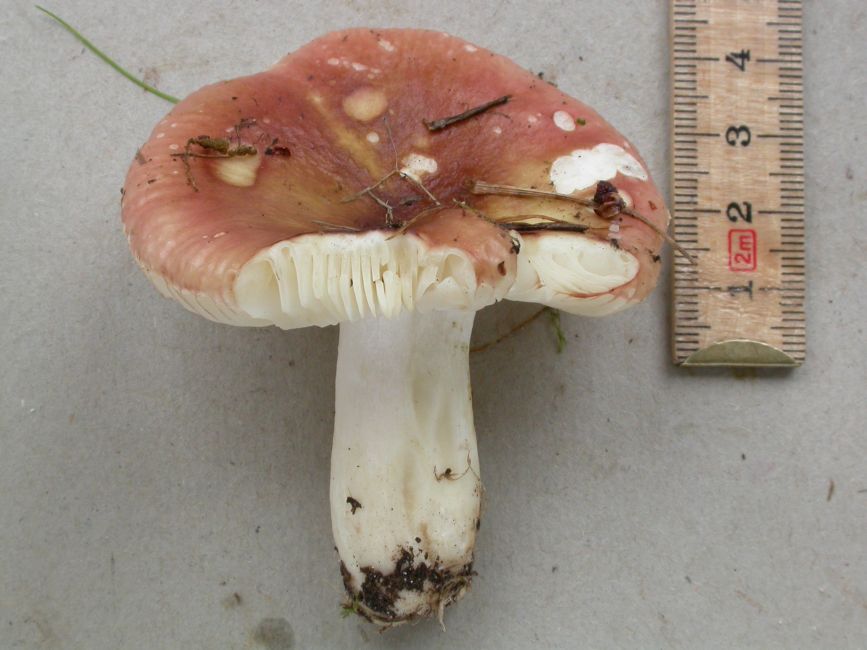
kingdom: Fungi
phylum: Basidiomycota
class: Agaricomycetes
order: Russulales
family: Russulaceae
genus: Russula
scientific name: Russula subrubens
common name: pile-skørhat
